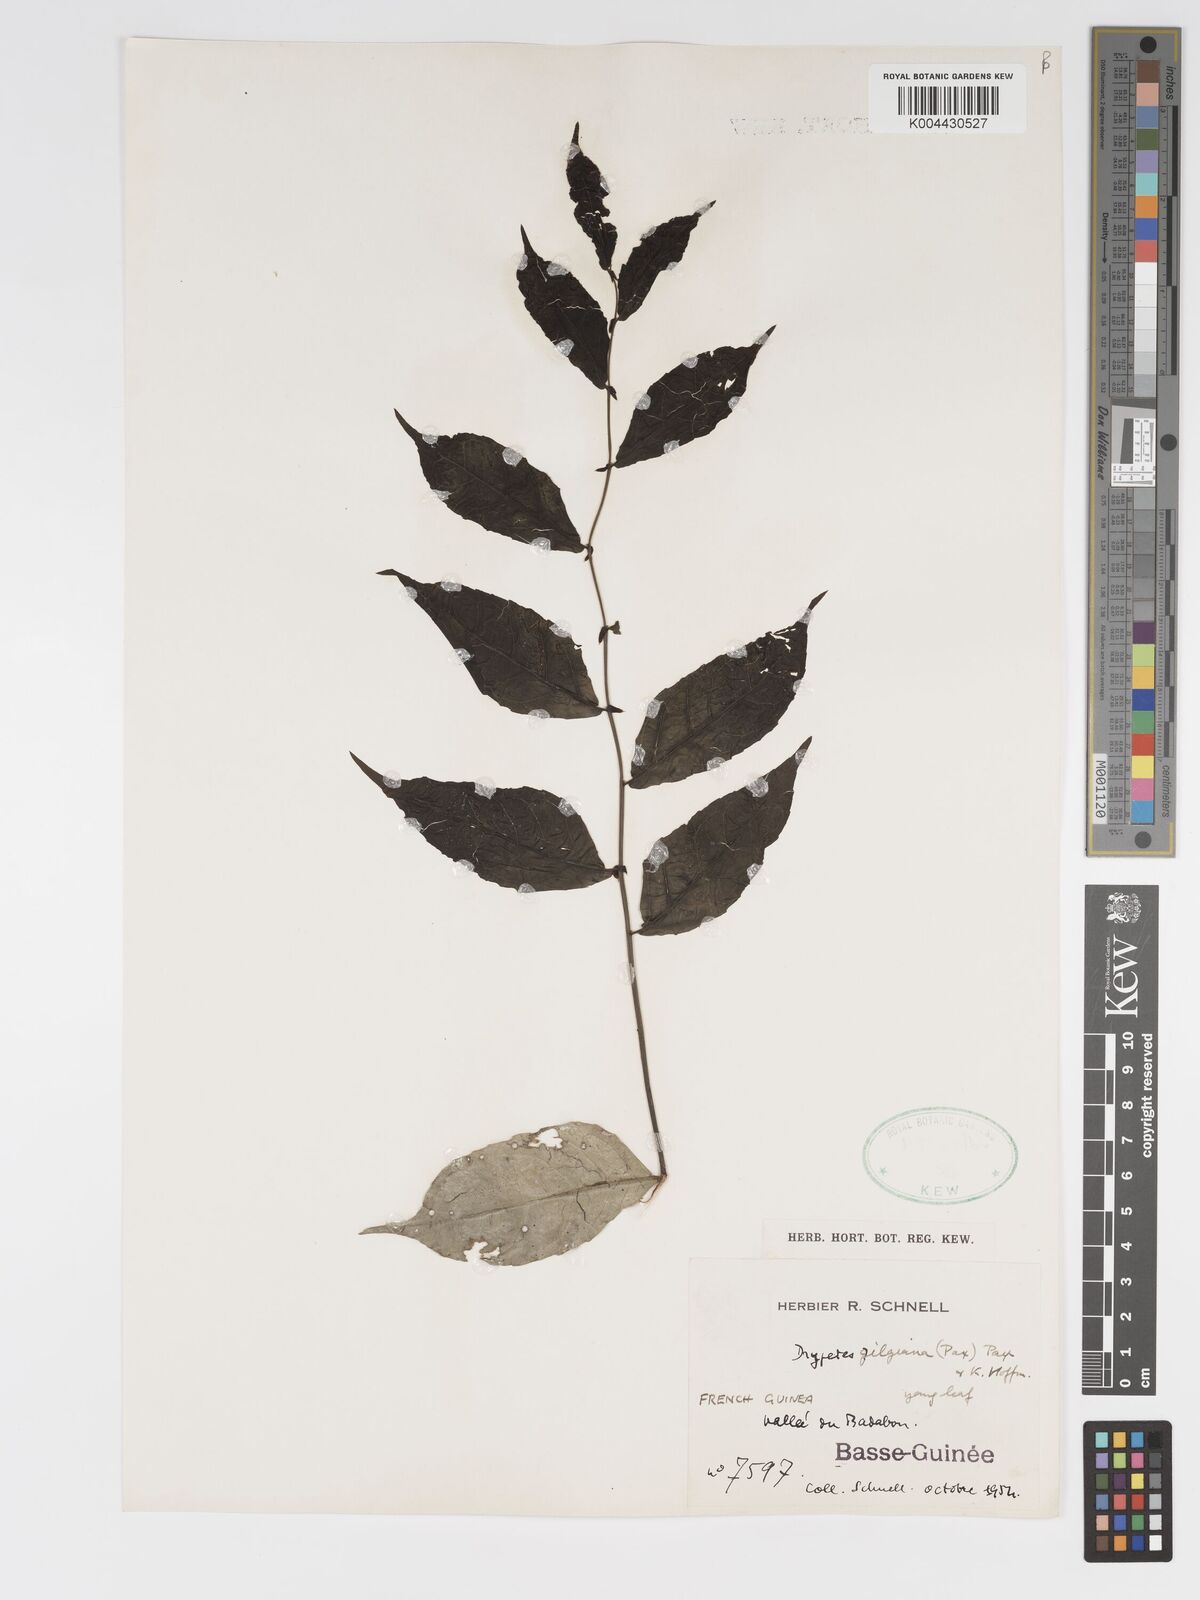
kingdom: Plantae
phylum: Tracheophyta
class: Magnoliopsida
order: Malpighiales
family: Putranjivaceae
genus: Drypetes
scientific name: Drypetes gilgiana
